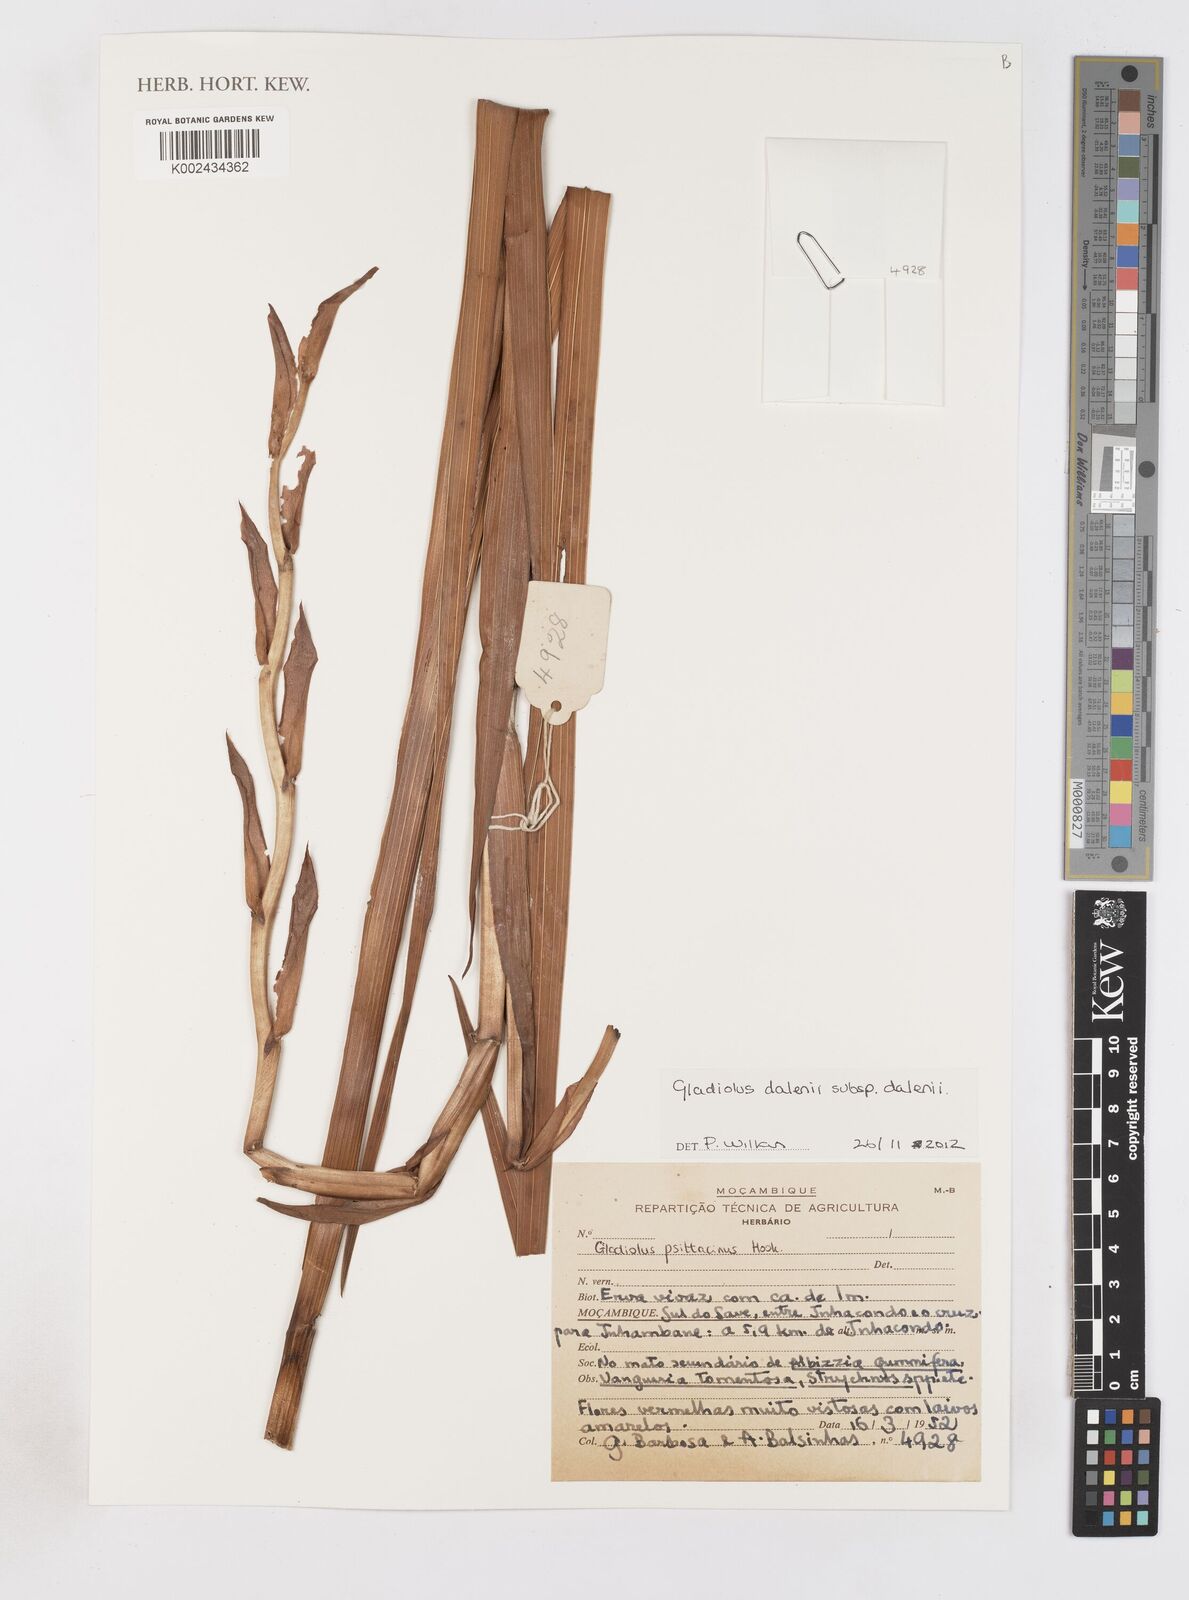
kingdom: Plantae
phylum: Tracheophyta
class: Liliopsida
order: Asparagales
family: Iridaceae
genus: Gladiolus
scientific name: Gladiolus dalenii
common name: Cornflag
